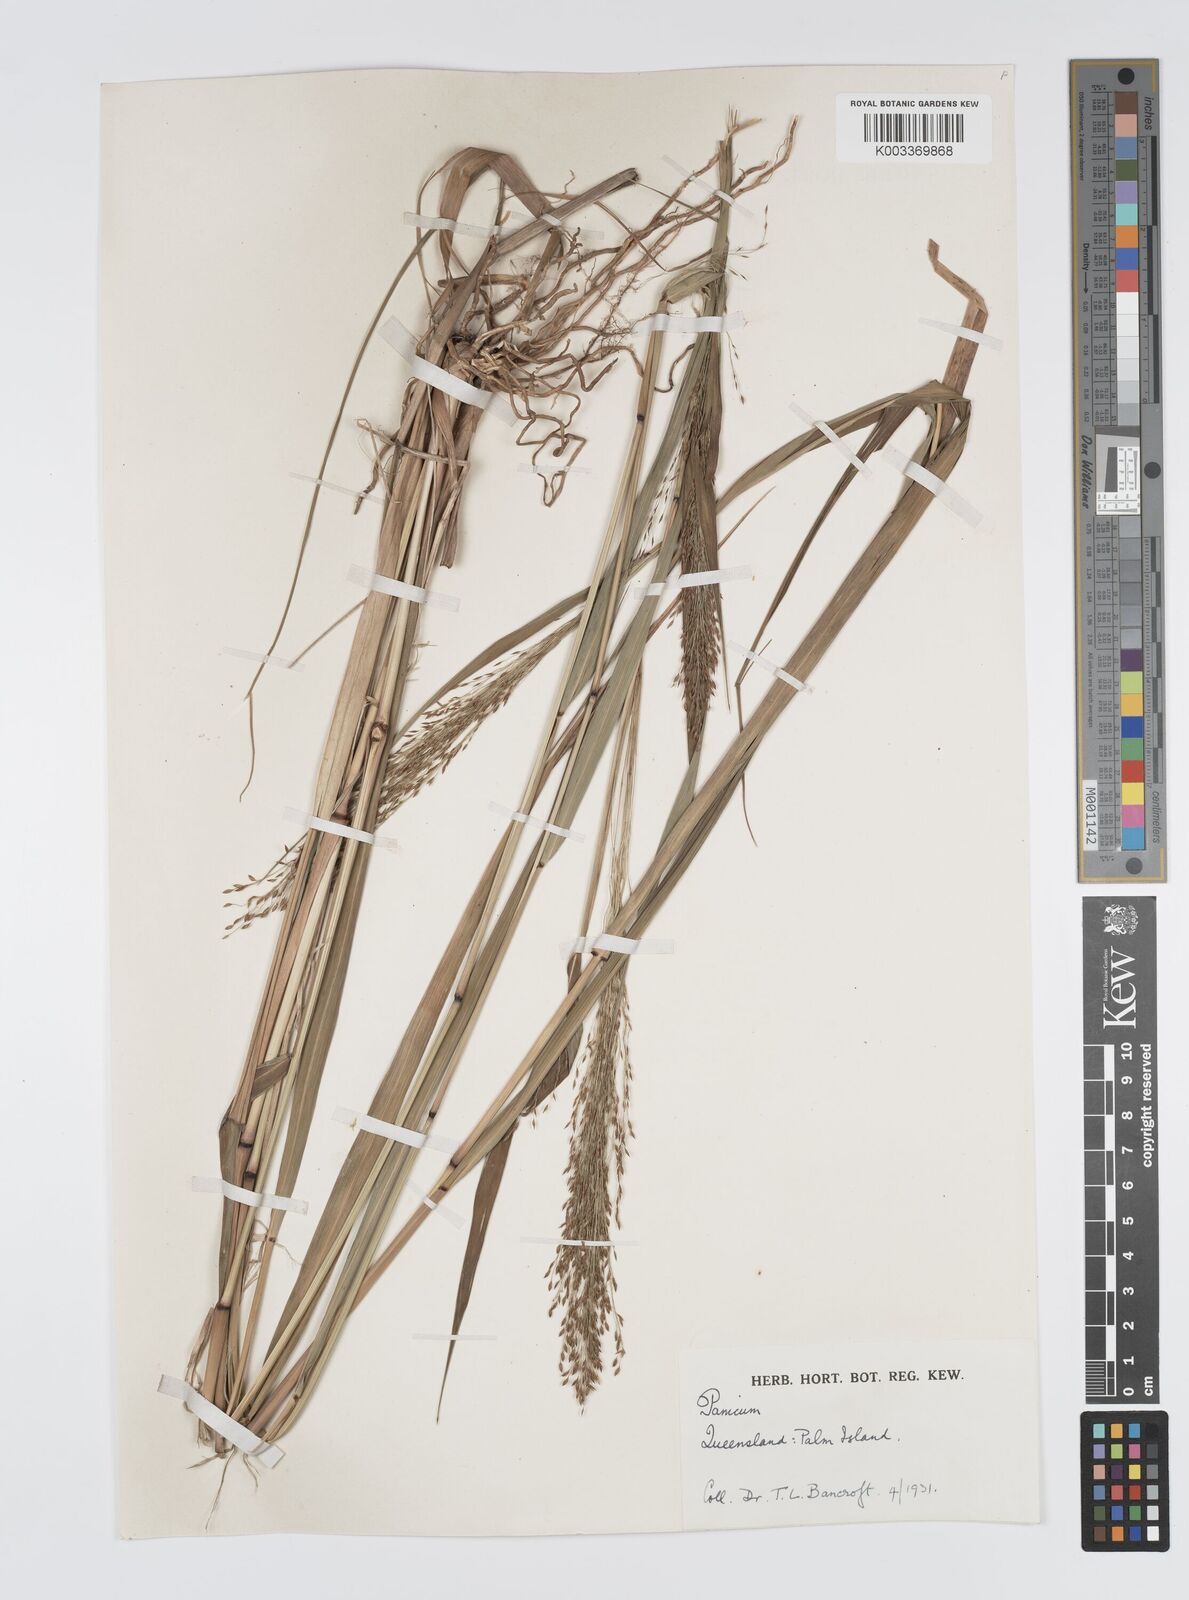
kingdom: Plantae
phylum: Tracheophyta
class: Liliopsida
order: Poales
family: Poaceae
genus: Panicum
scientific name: Panicum mitchellii
